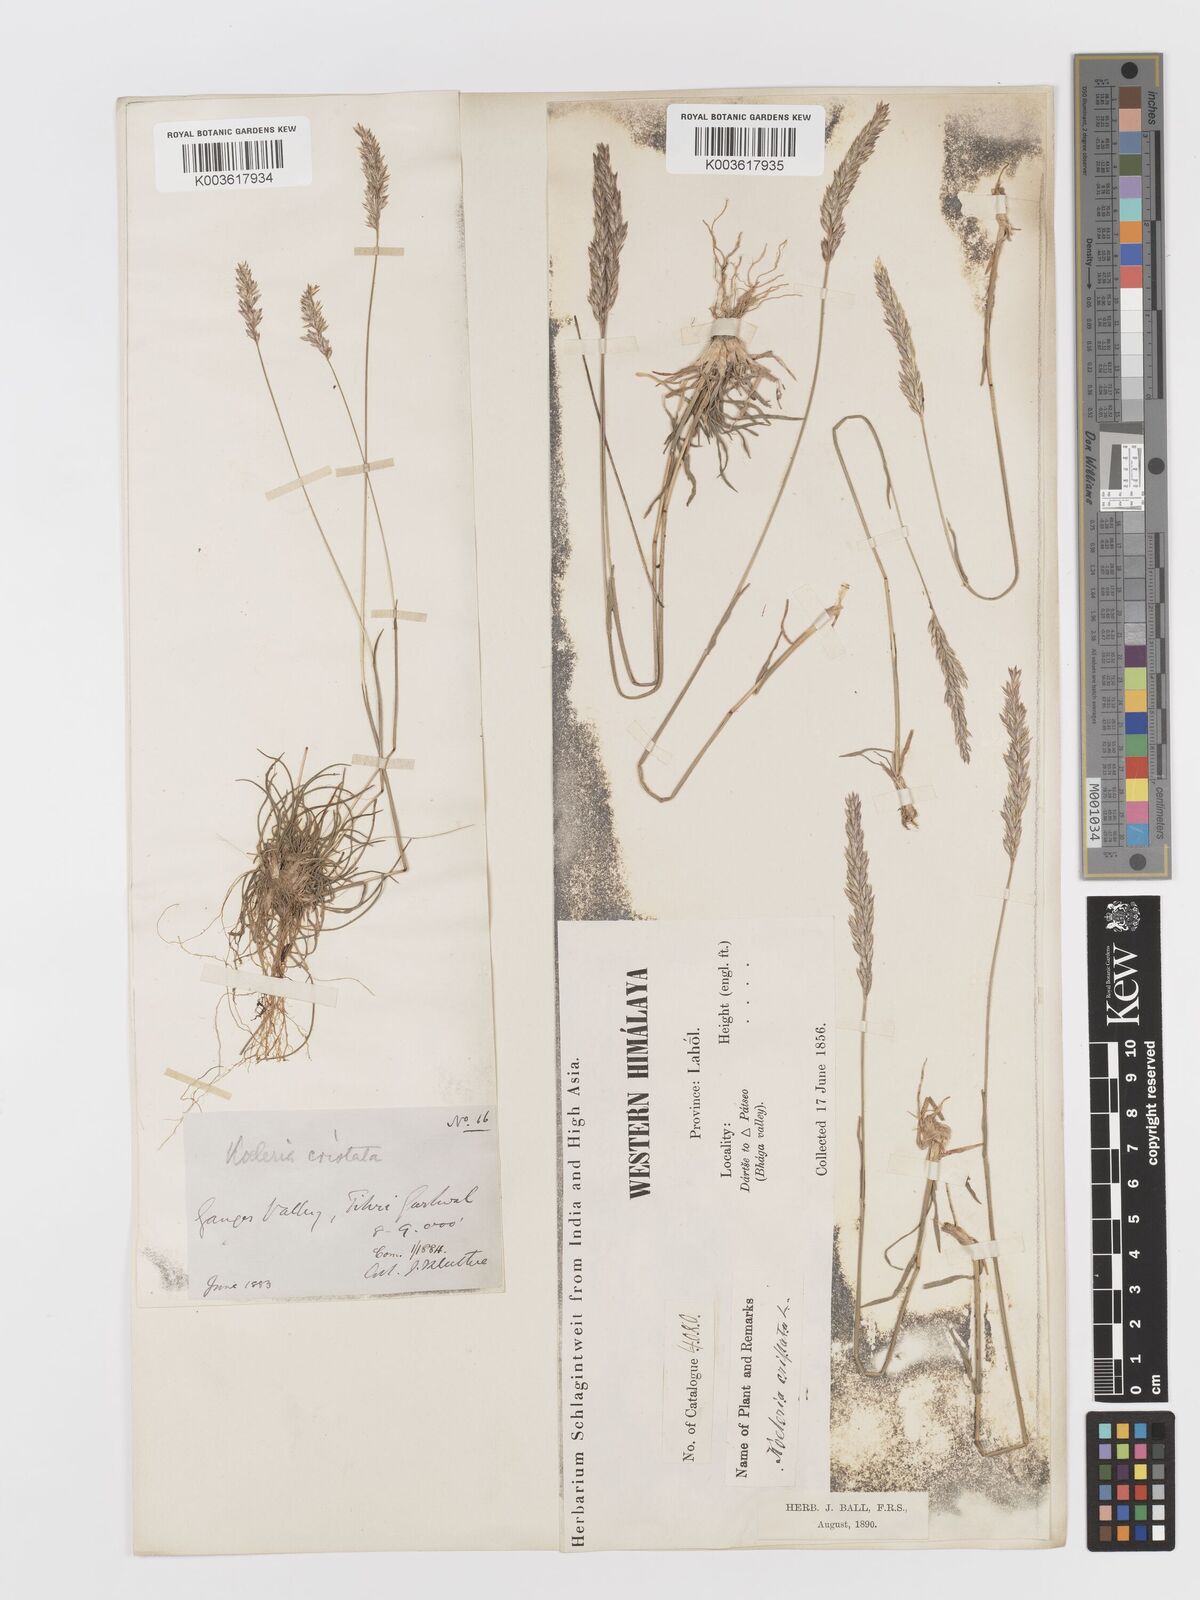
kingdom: Plantae
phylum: Tracheophyta
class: Liliopsida
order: Poales
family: Poaceae
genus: Koeleria
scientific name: Koeleria
